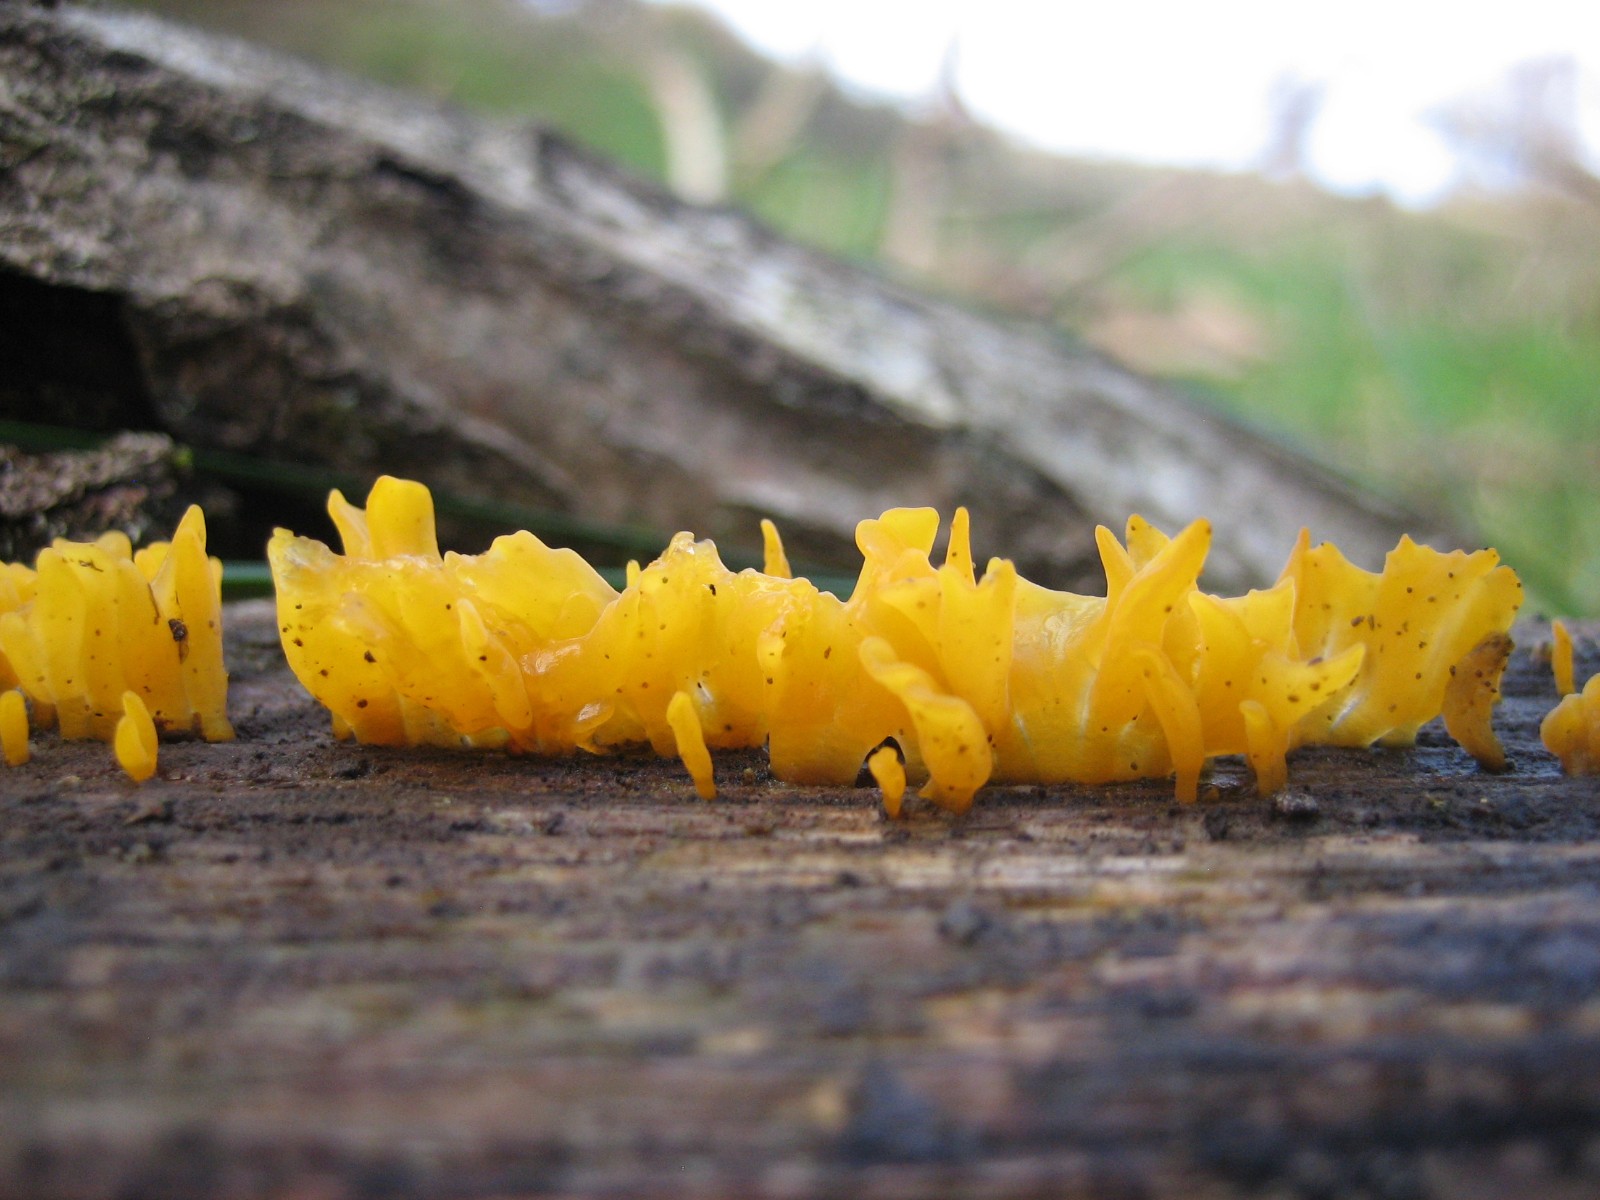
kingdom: Fungi
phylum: Basidiomycota
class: Dacrymycetes
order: Dacrymycetales
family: Dacrymycetaceae
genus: Calocera
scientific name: Calocera cornea
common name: liden guldgaffel
